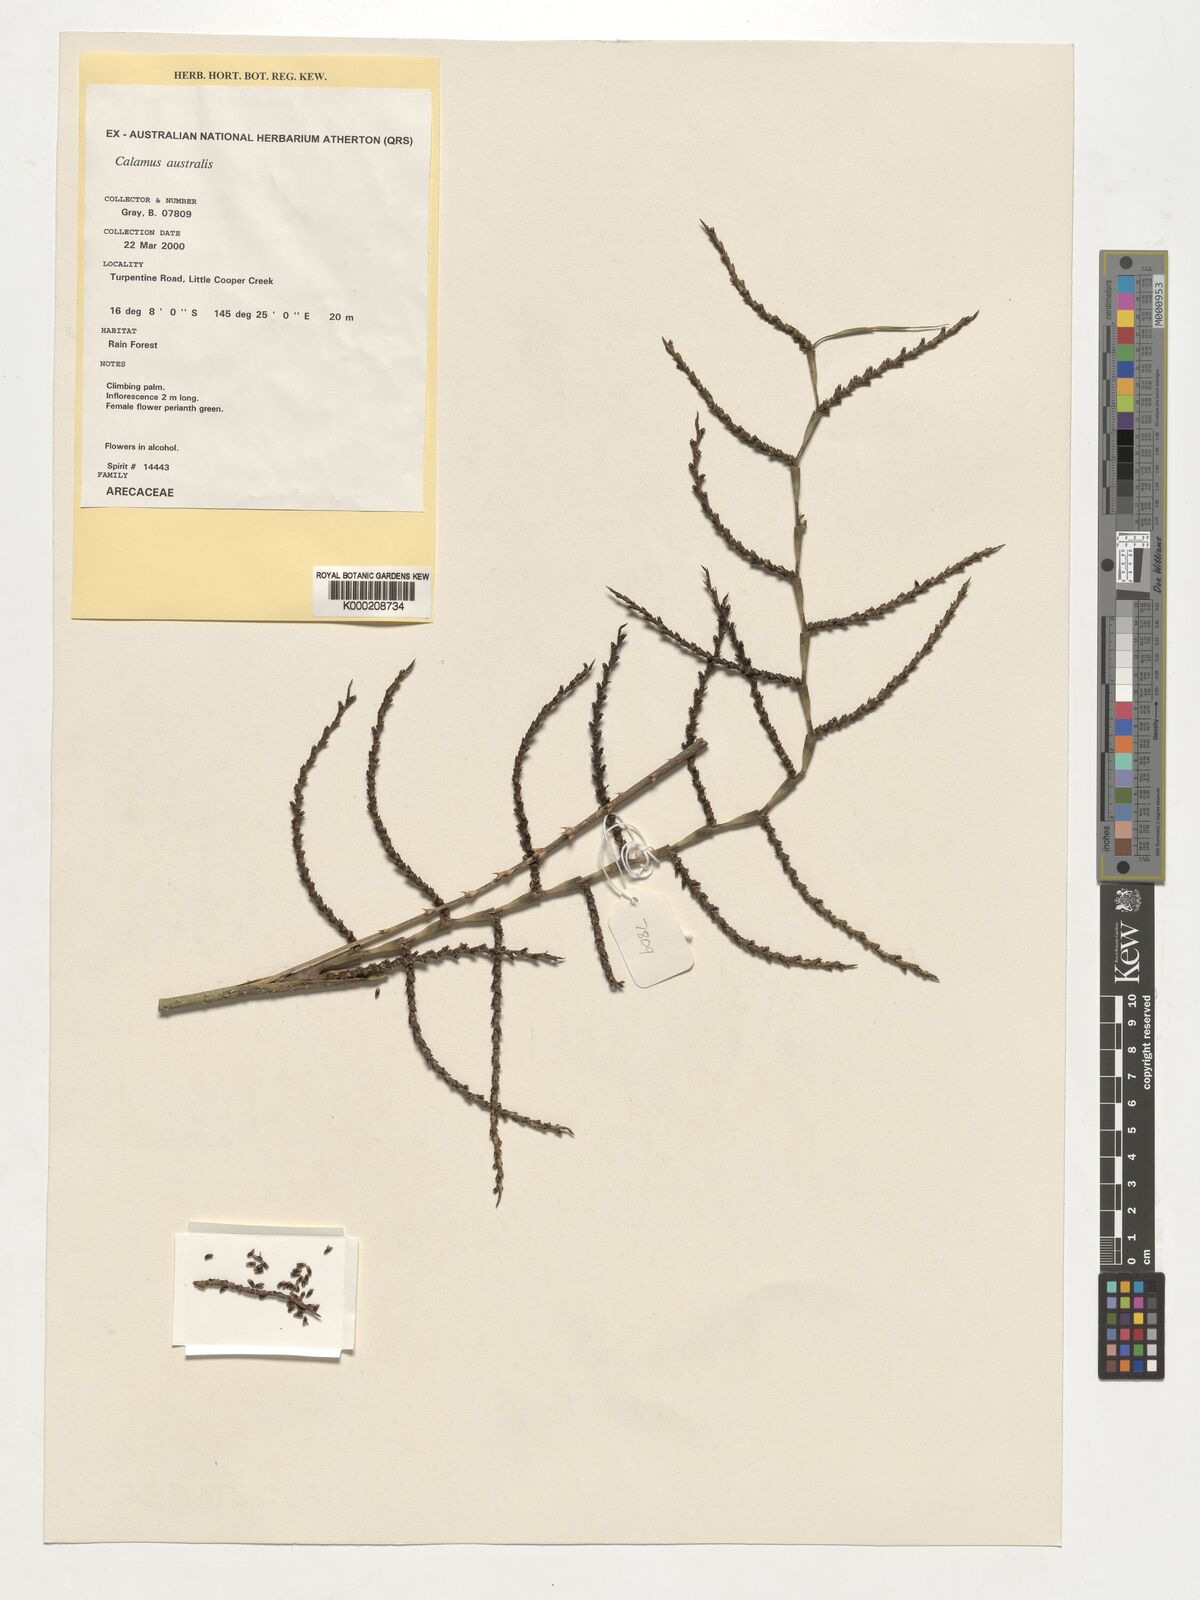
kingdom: Plantae
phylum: Tracheophyta
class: Liliopsida
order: Arecales
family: Arecaceae
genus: Calamus
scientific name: Calamus australis
